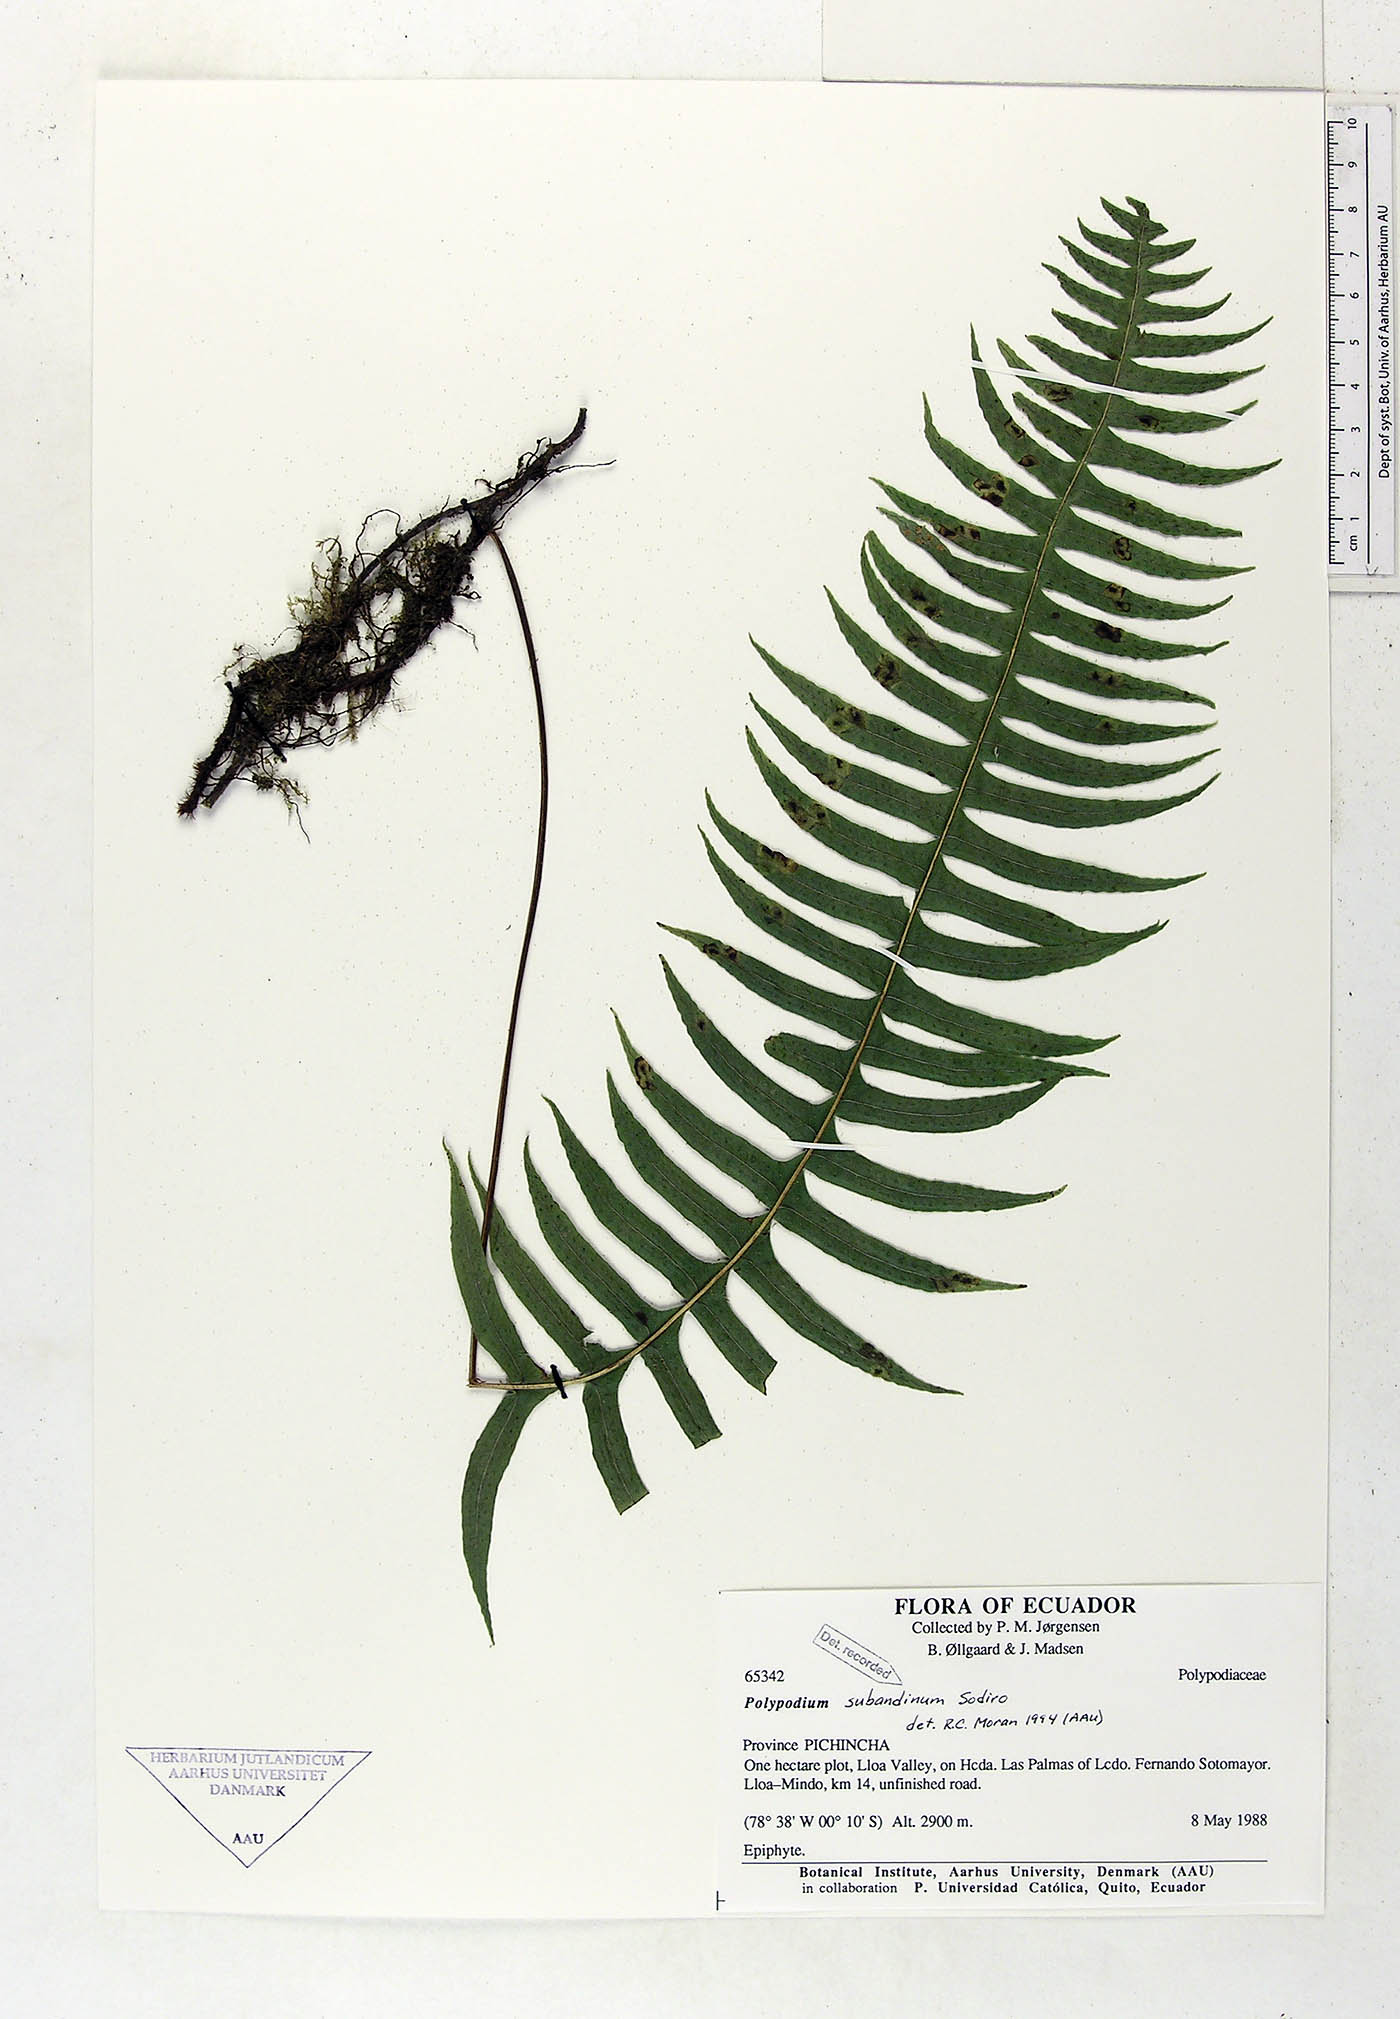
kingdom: Plantae
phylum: Tracheophyta
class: Polypodiopsida
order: Polypodiales
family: Polypodiaceae
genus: Serpocaulon
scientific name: Serpocaulon subandinum
